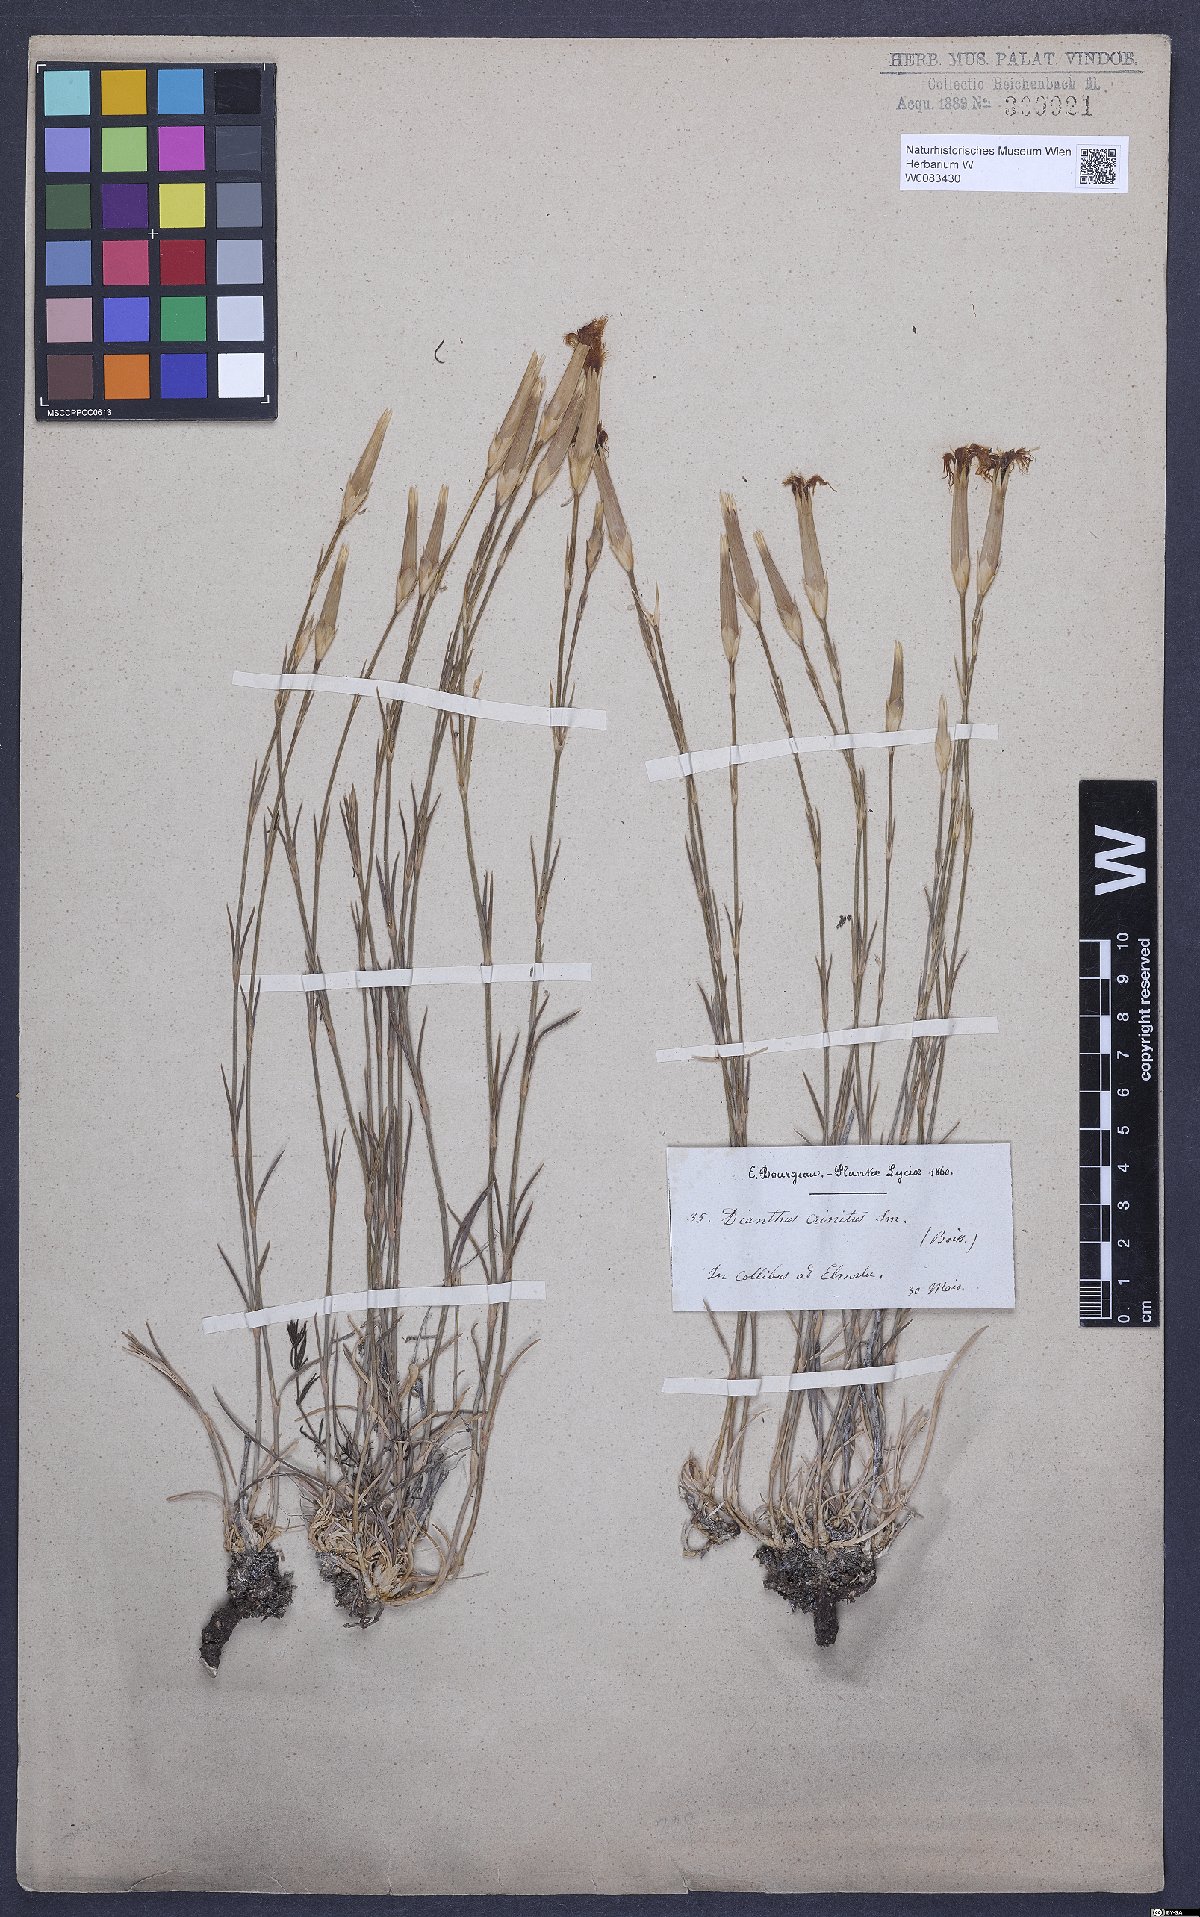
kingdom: Plantae
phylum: Tracheophyta
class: Magnoliopsida
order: Caryophyllales
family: Caryophyllaceae
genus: Dianthus
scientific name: Dianthus crinitus
